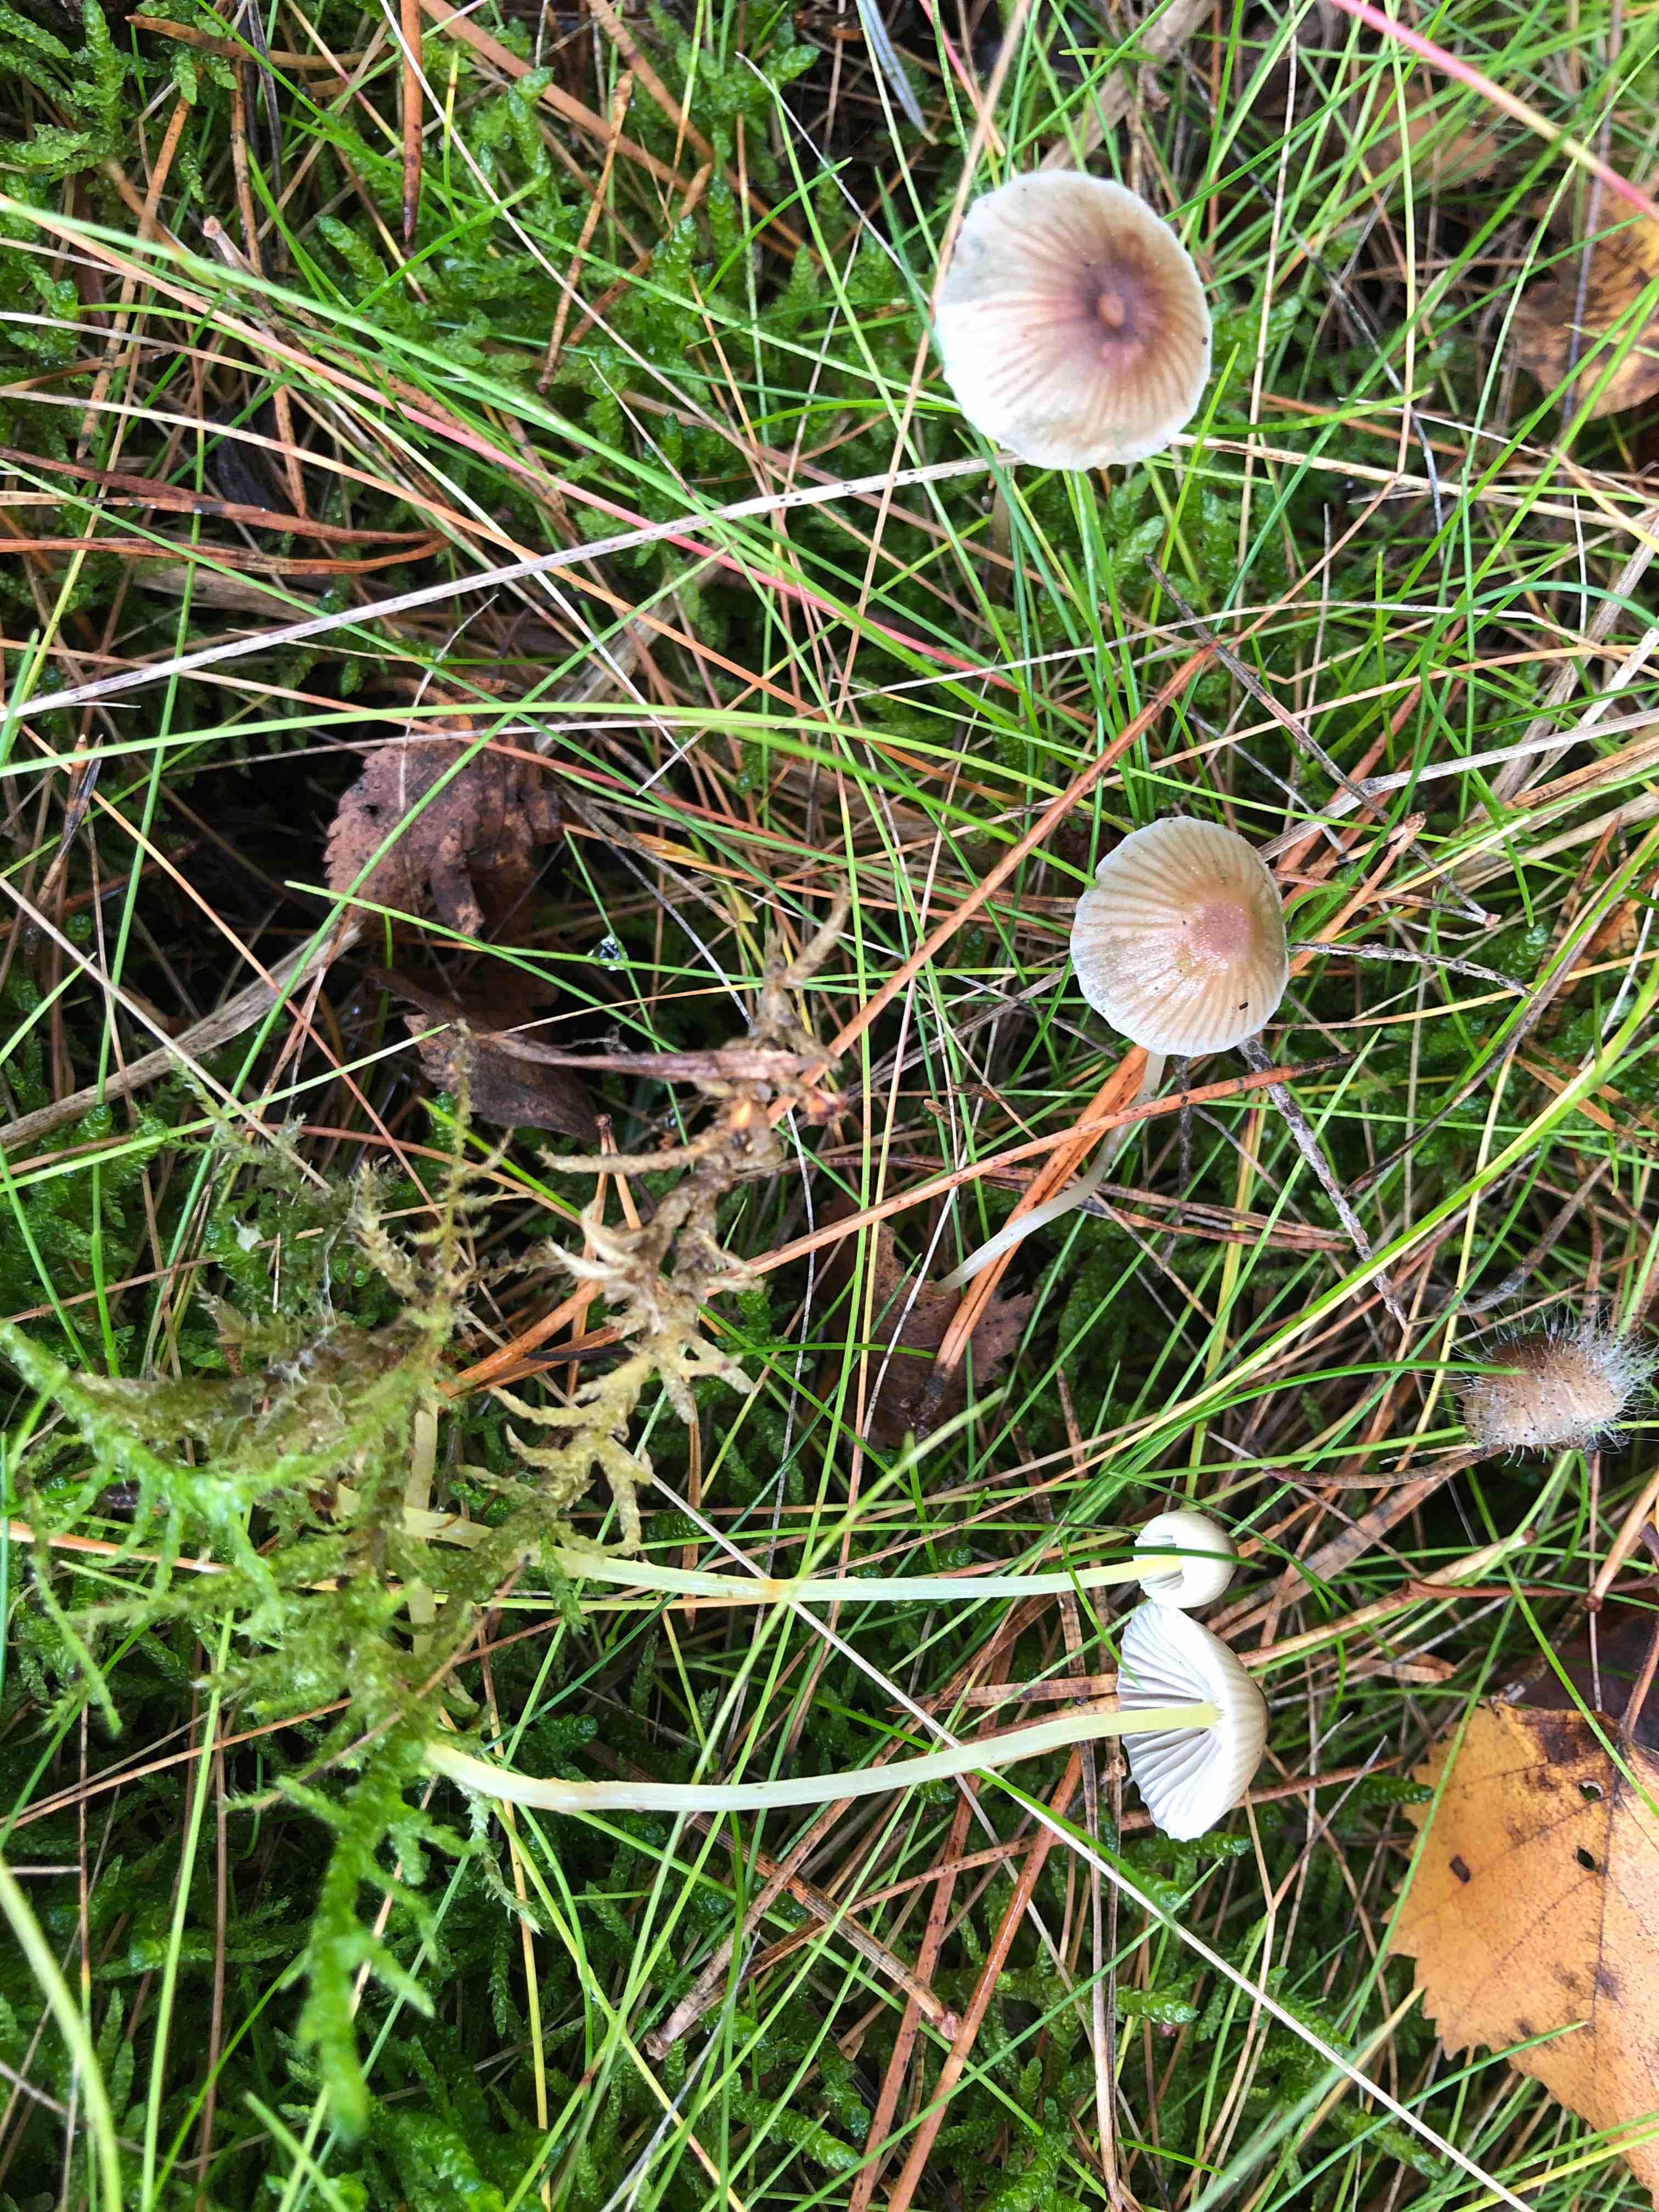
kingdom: Fungi
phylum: Basidiomycota
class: Agaricomycetes
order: Agaricales
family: Mycenaceae
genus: Mycena
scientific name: Mycena epipterygia
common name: gulstokket huesvamp
